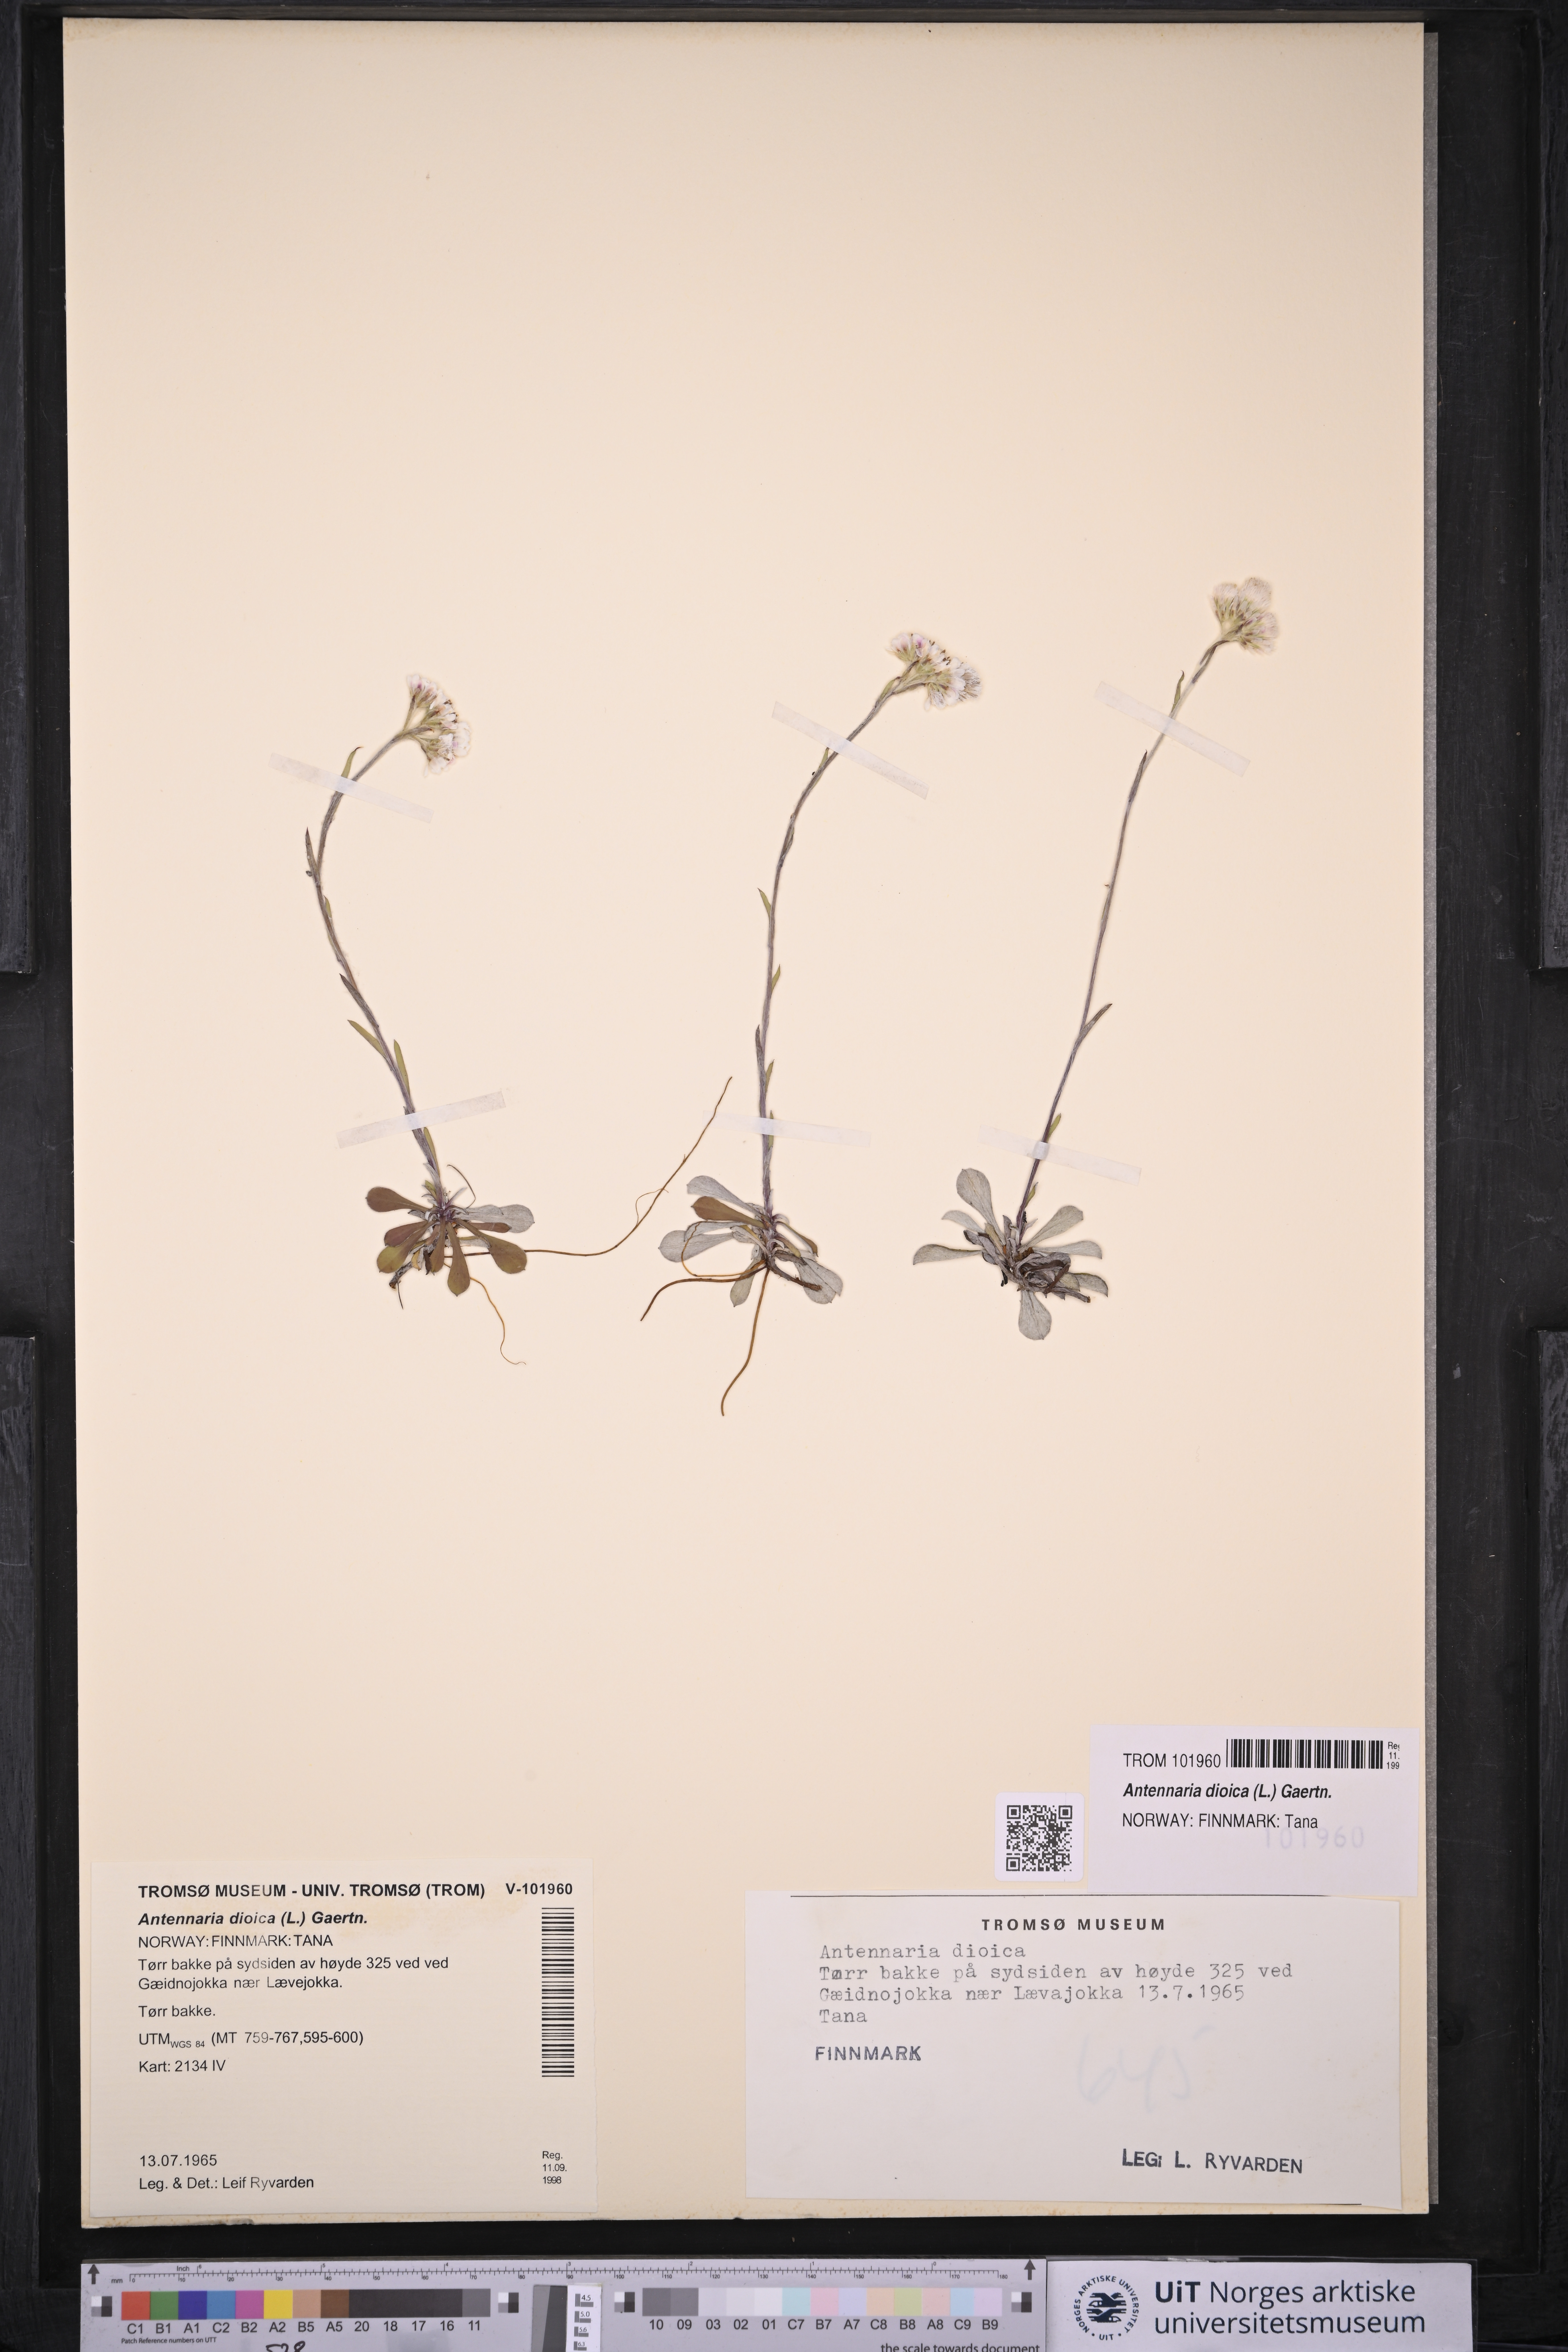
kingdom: Plantae
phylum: Tracheophyta
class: Magnoliopsida
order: Asterales
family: Asteraceae
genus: Antennaria
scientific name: Antennaria dioica
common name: Mountain everlasting
